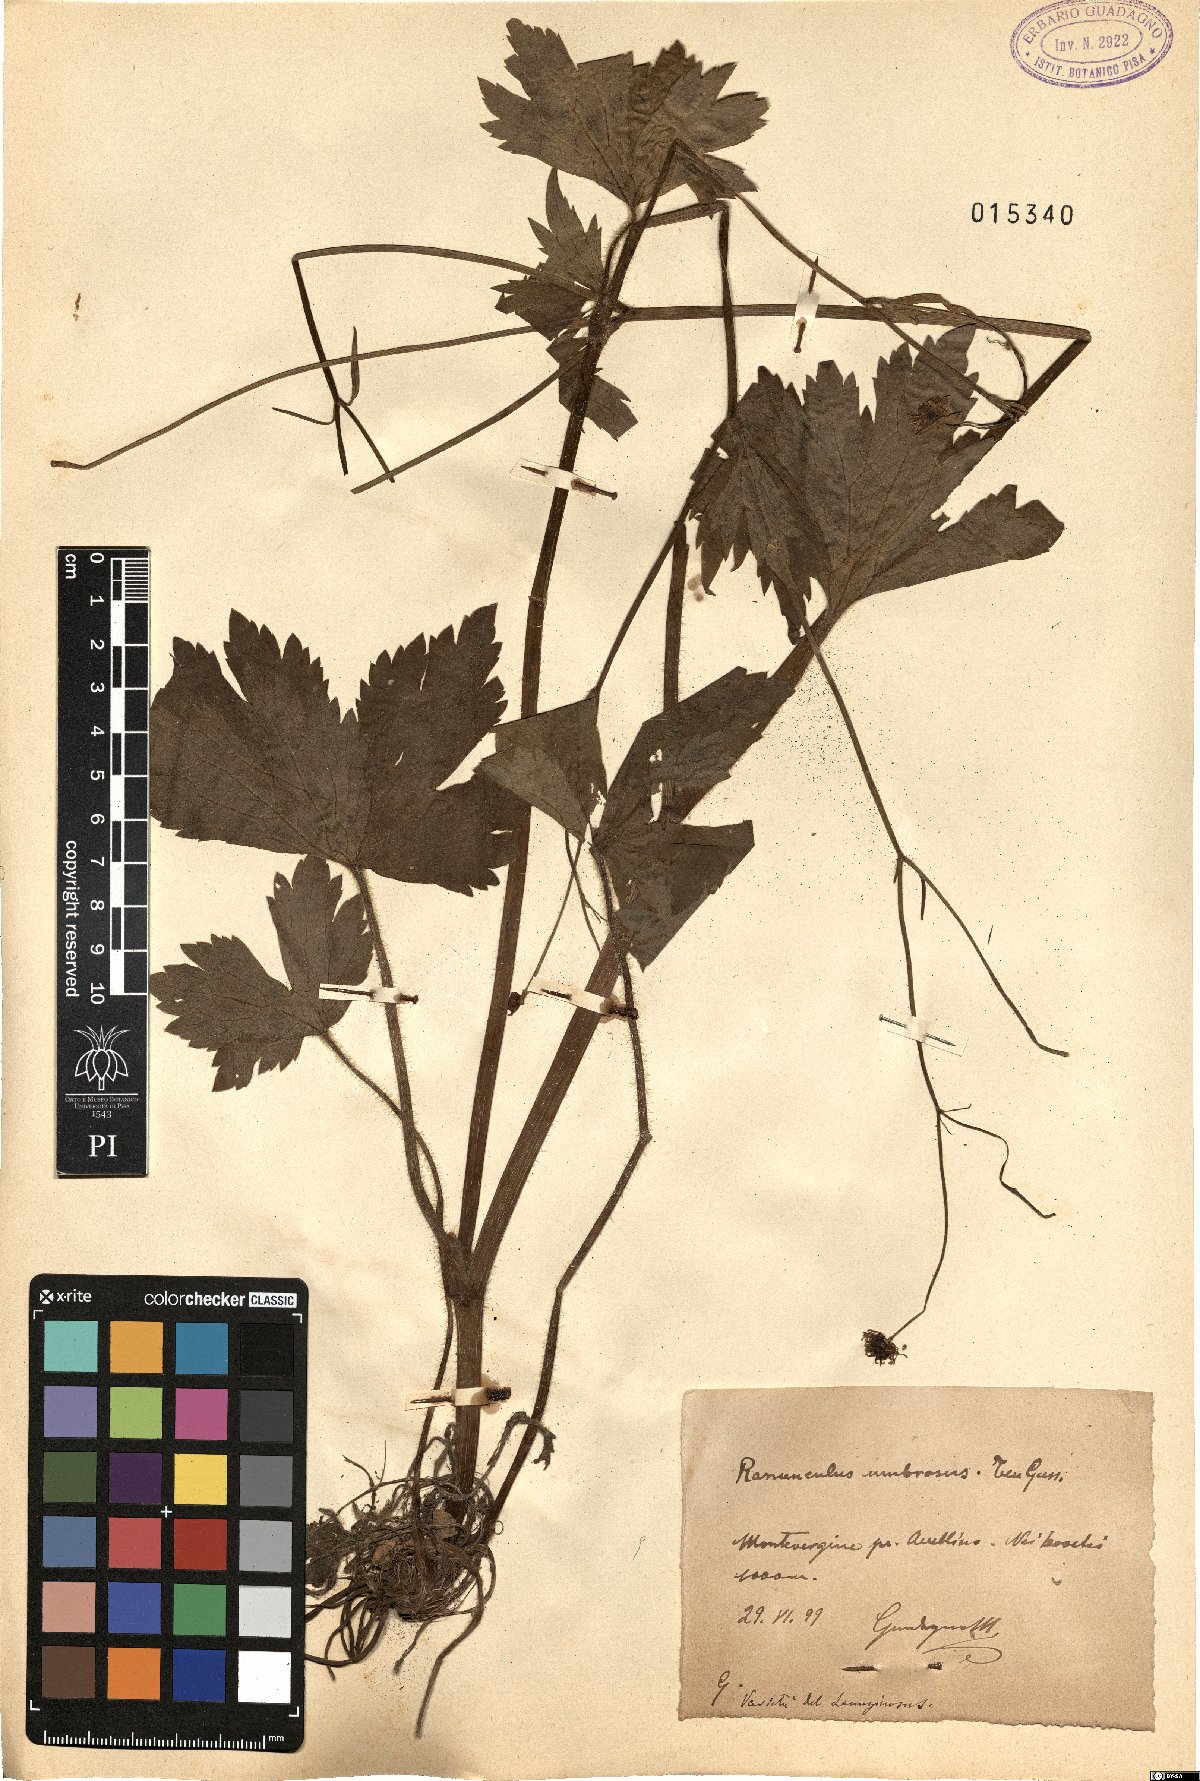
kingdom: Plantae
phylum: Tracheophyta
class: Magnoliopsida
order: Ranunculales
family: Ranunculaceae
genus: Ranunculus
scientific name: Ranunculus lanuginosus
